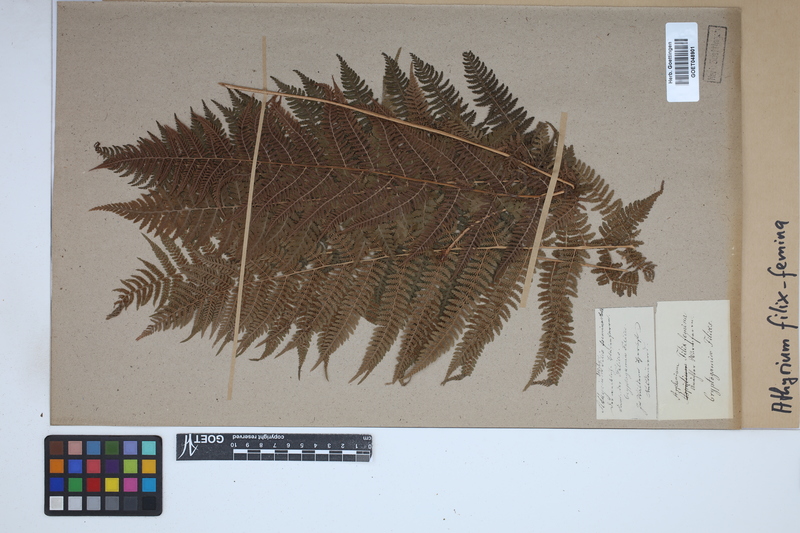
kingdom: Plantae
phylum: Tracheophyta
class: Polypodiopsida
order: Polypodiales
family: Athyriaceae
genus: Athyrium
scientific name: Athyrium filix-femina
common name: Lady fern
